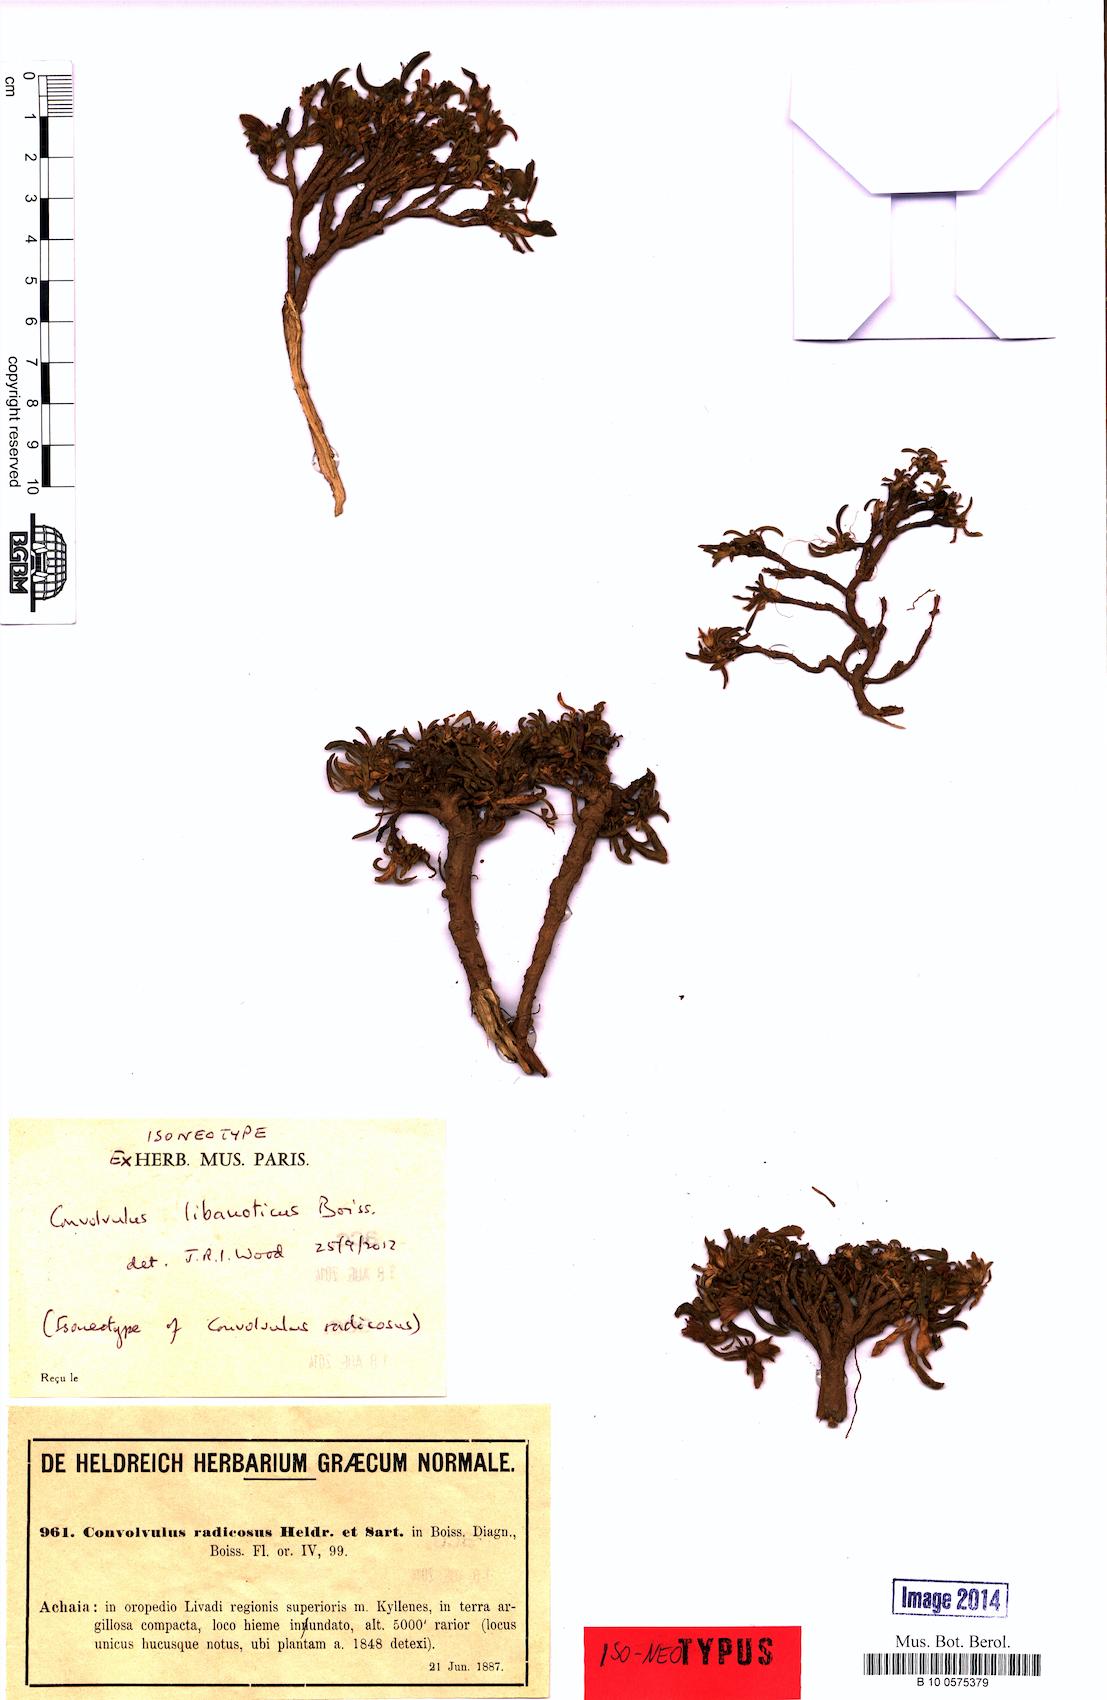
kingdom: Plantae
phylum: Tracheophyta
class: Magnoliopsida
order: Solanales
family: Convolvulaceae
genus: Convolvulus
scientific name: Convolvulus libanoticus
